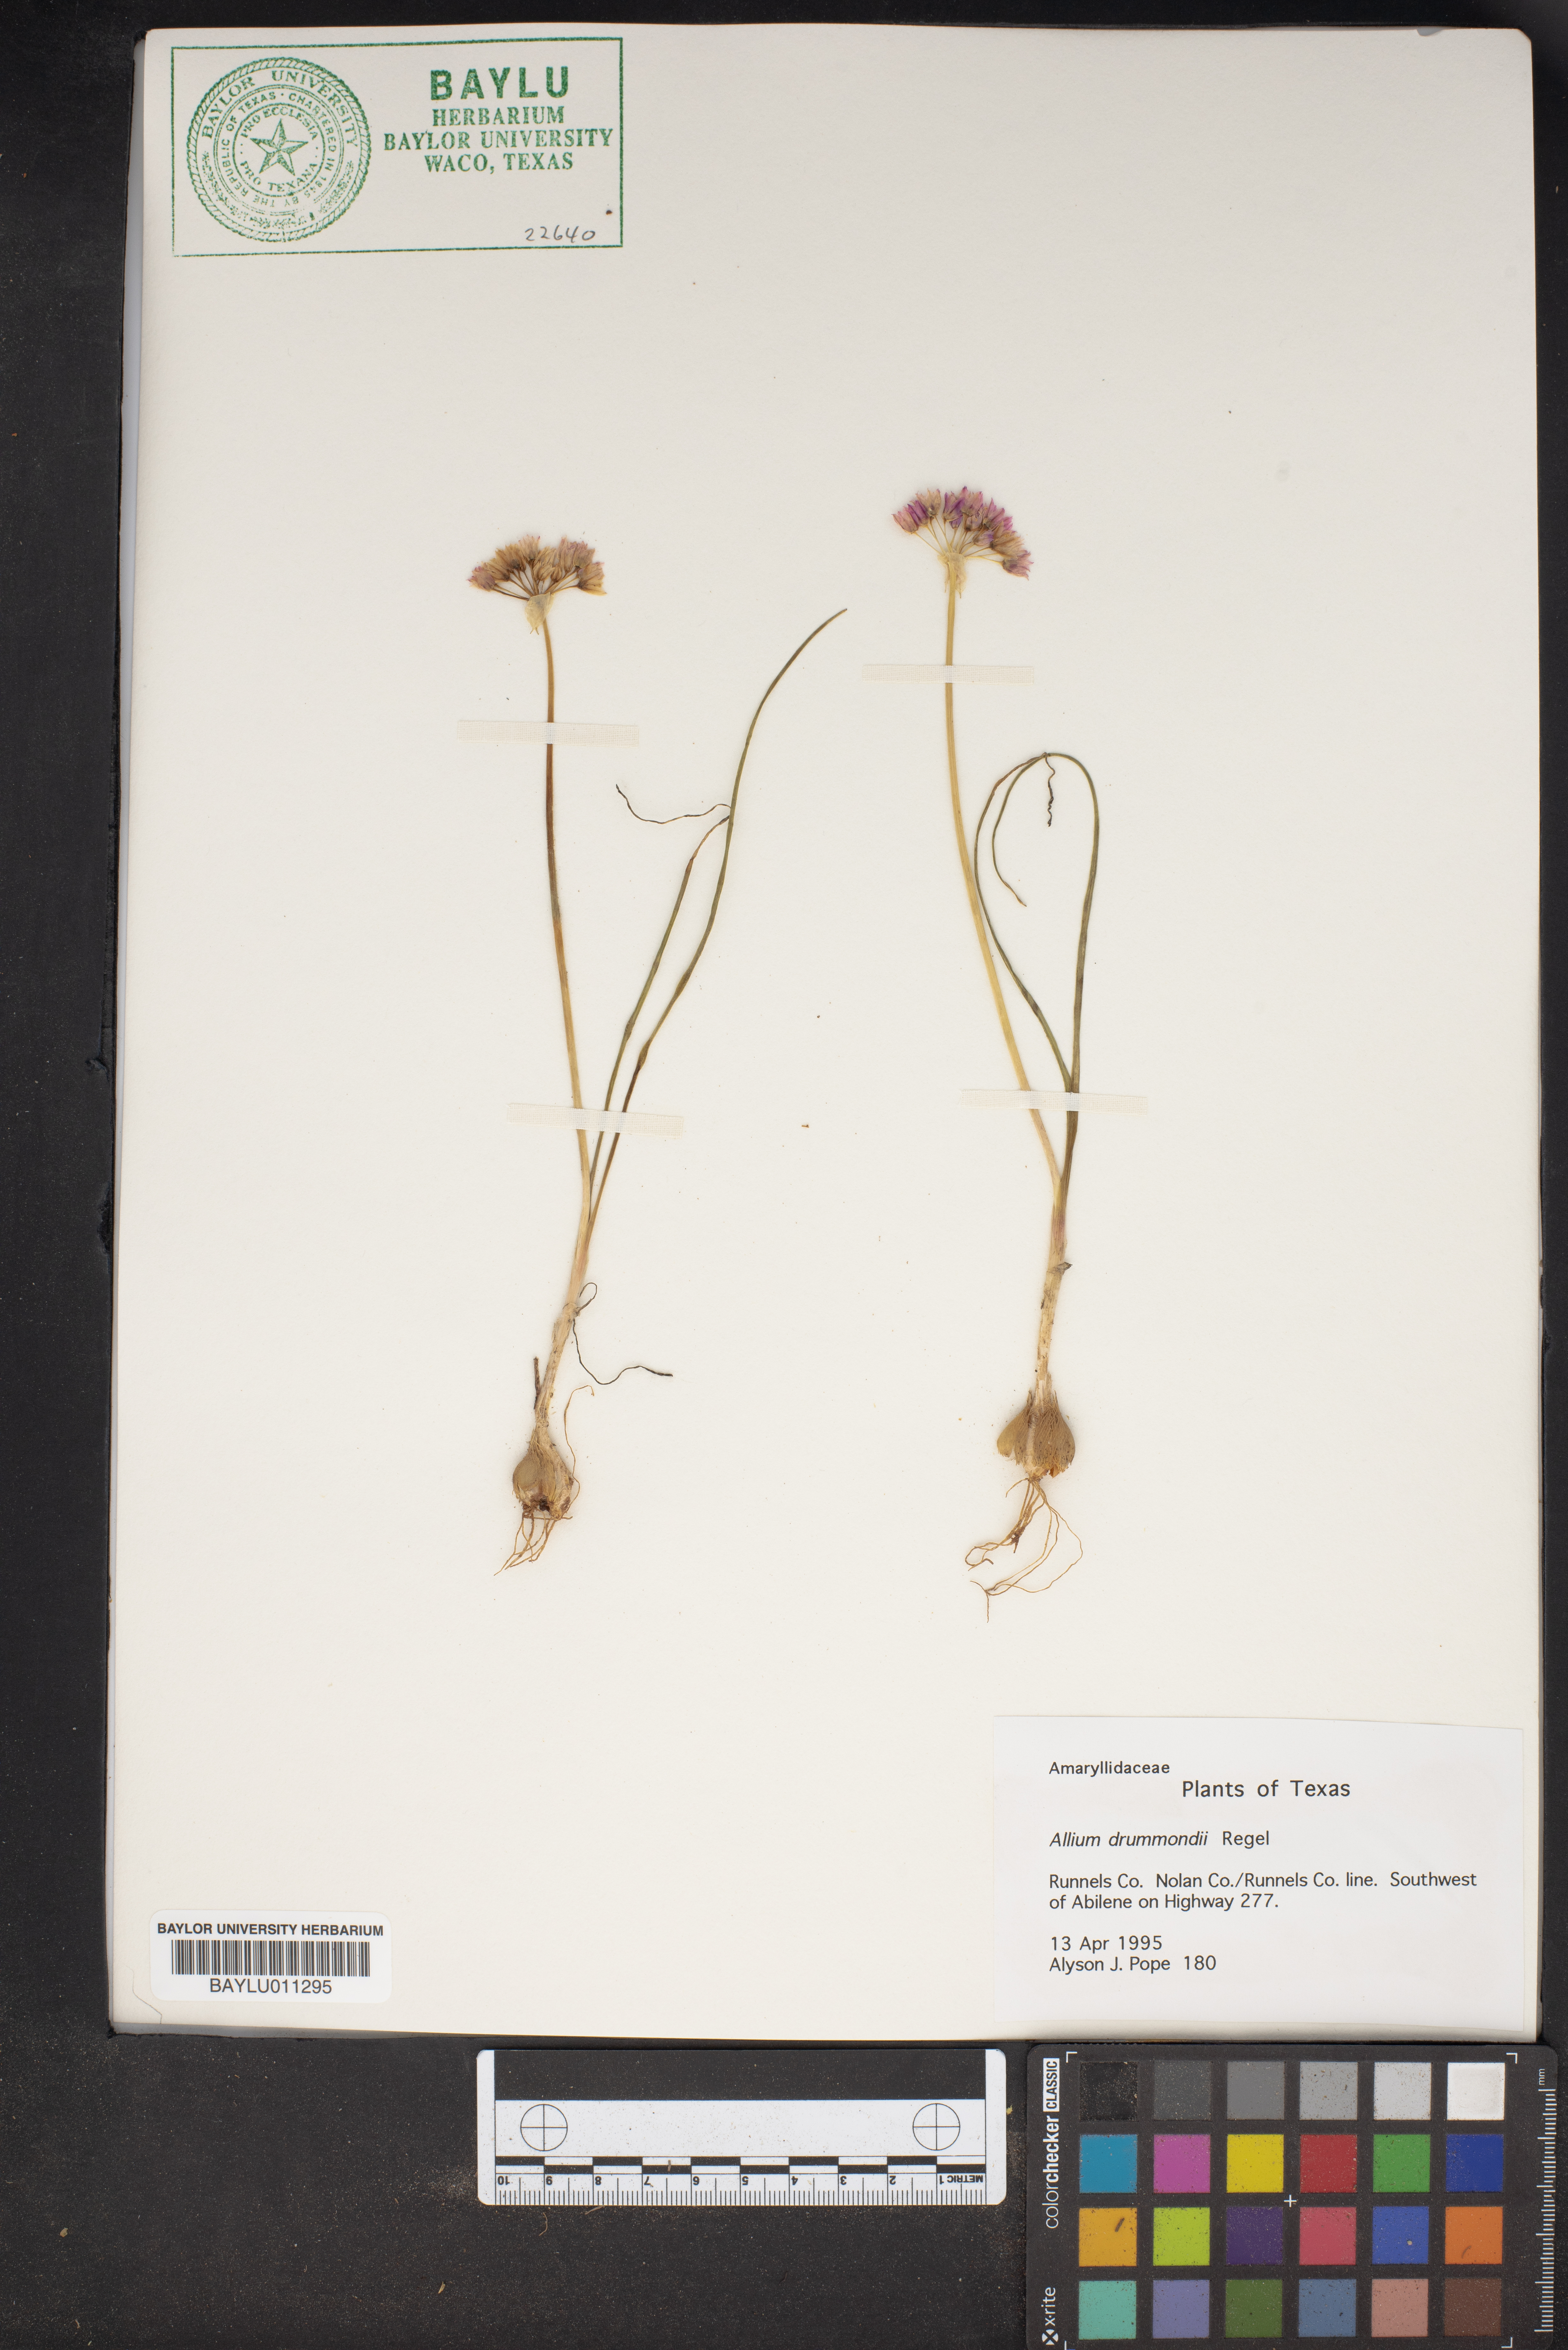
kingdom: Plantae
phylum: Tracheophyta
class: Liliopsida
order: Asparagales
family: Amaryllidaceae
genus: Allium
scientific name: Allium drummondii
